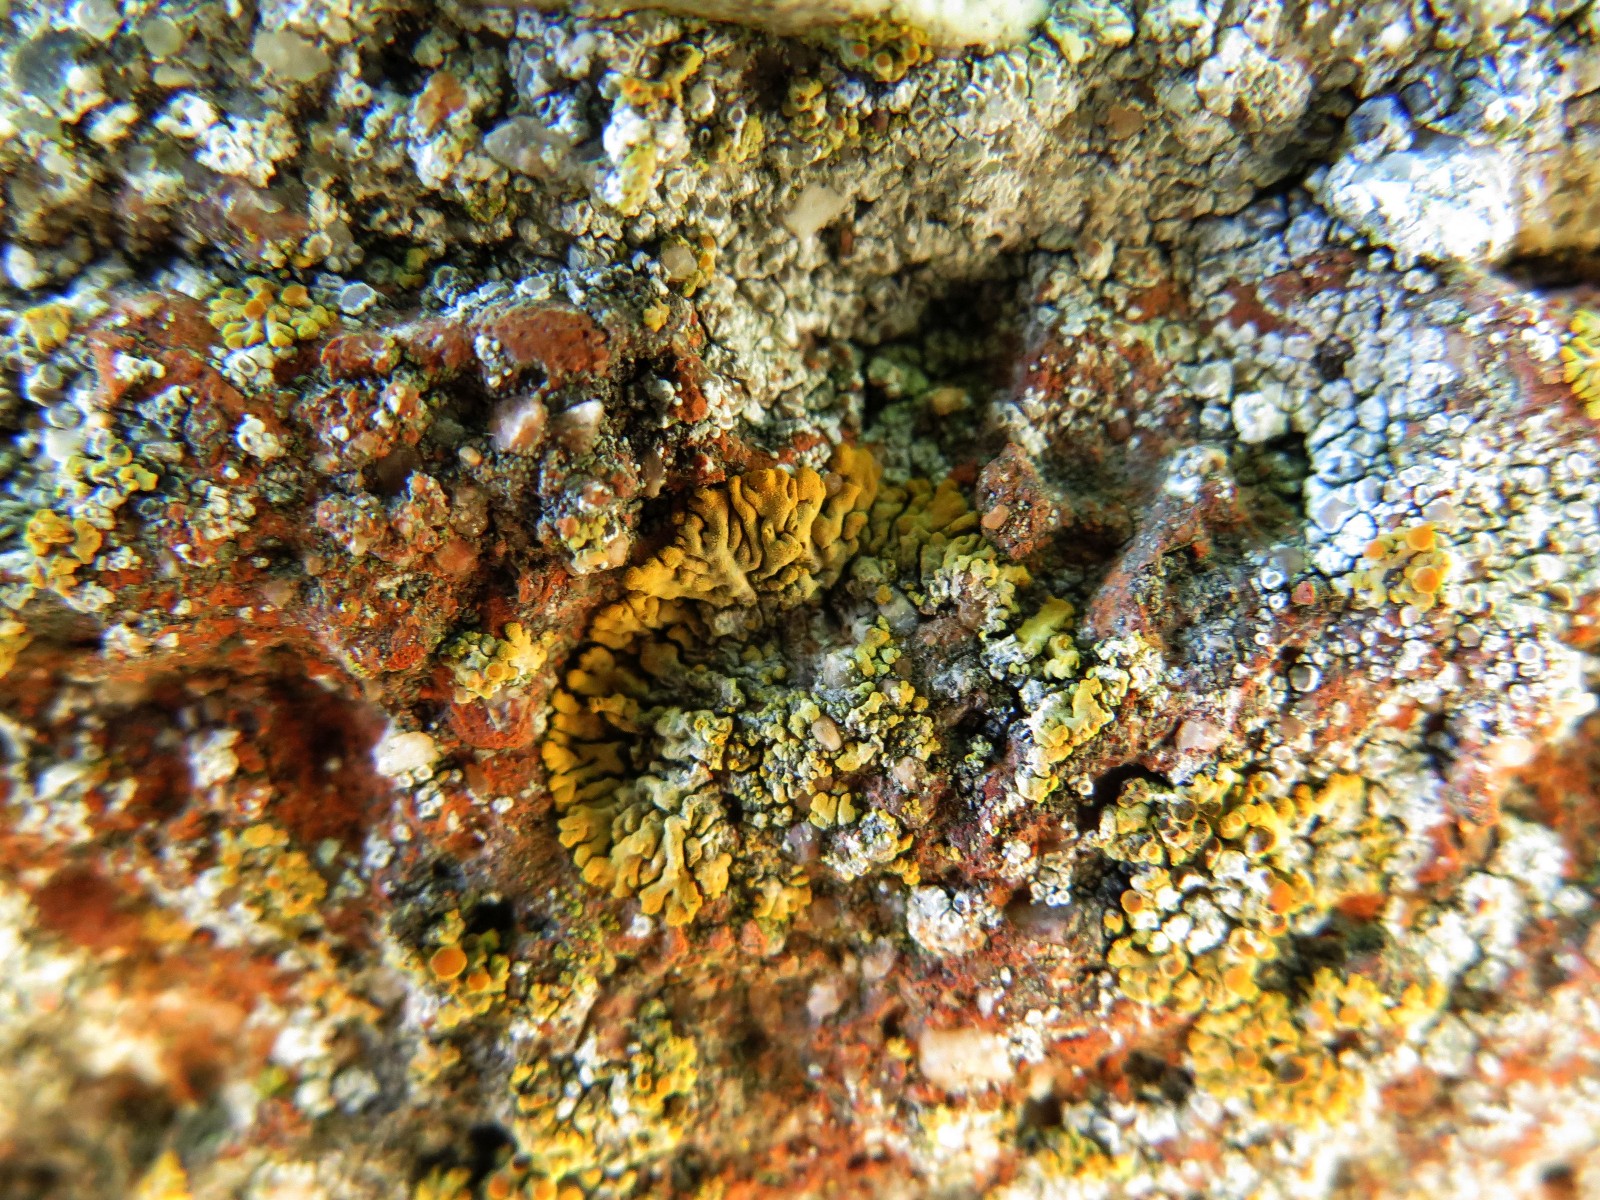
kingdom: Fungi
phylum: Ascomycota
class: Lecanoromycetes
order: Teloschistales
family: Teloschistaceae
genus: Calogaya
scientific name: Calogaya decipiens
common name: knudret orangelav
